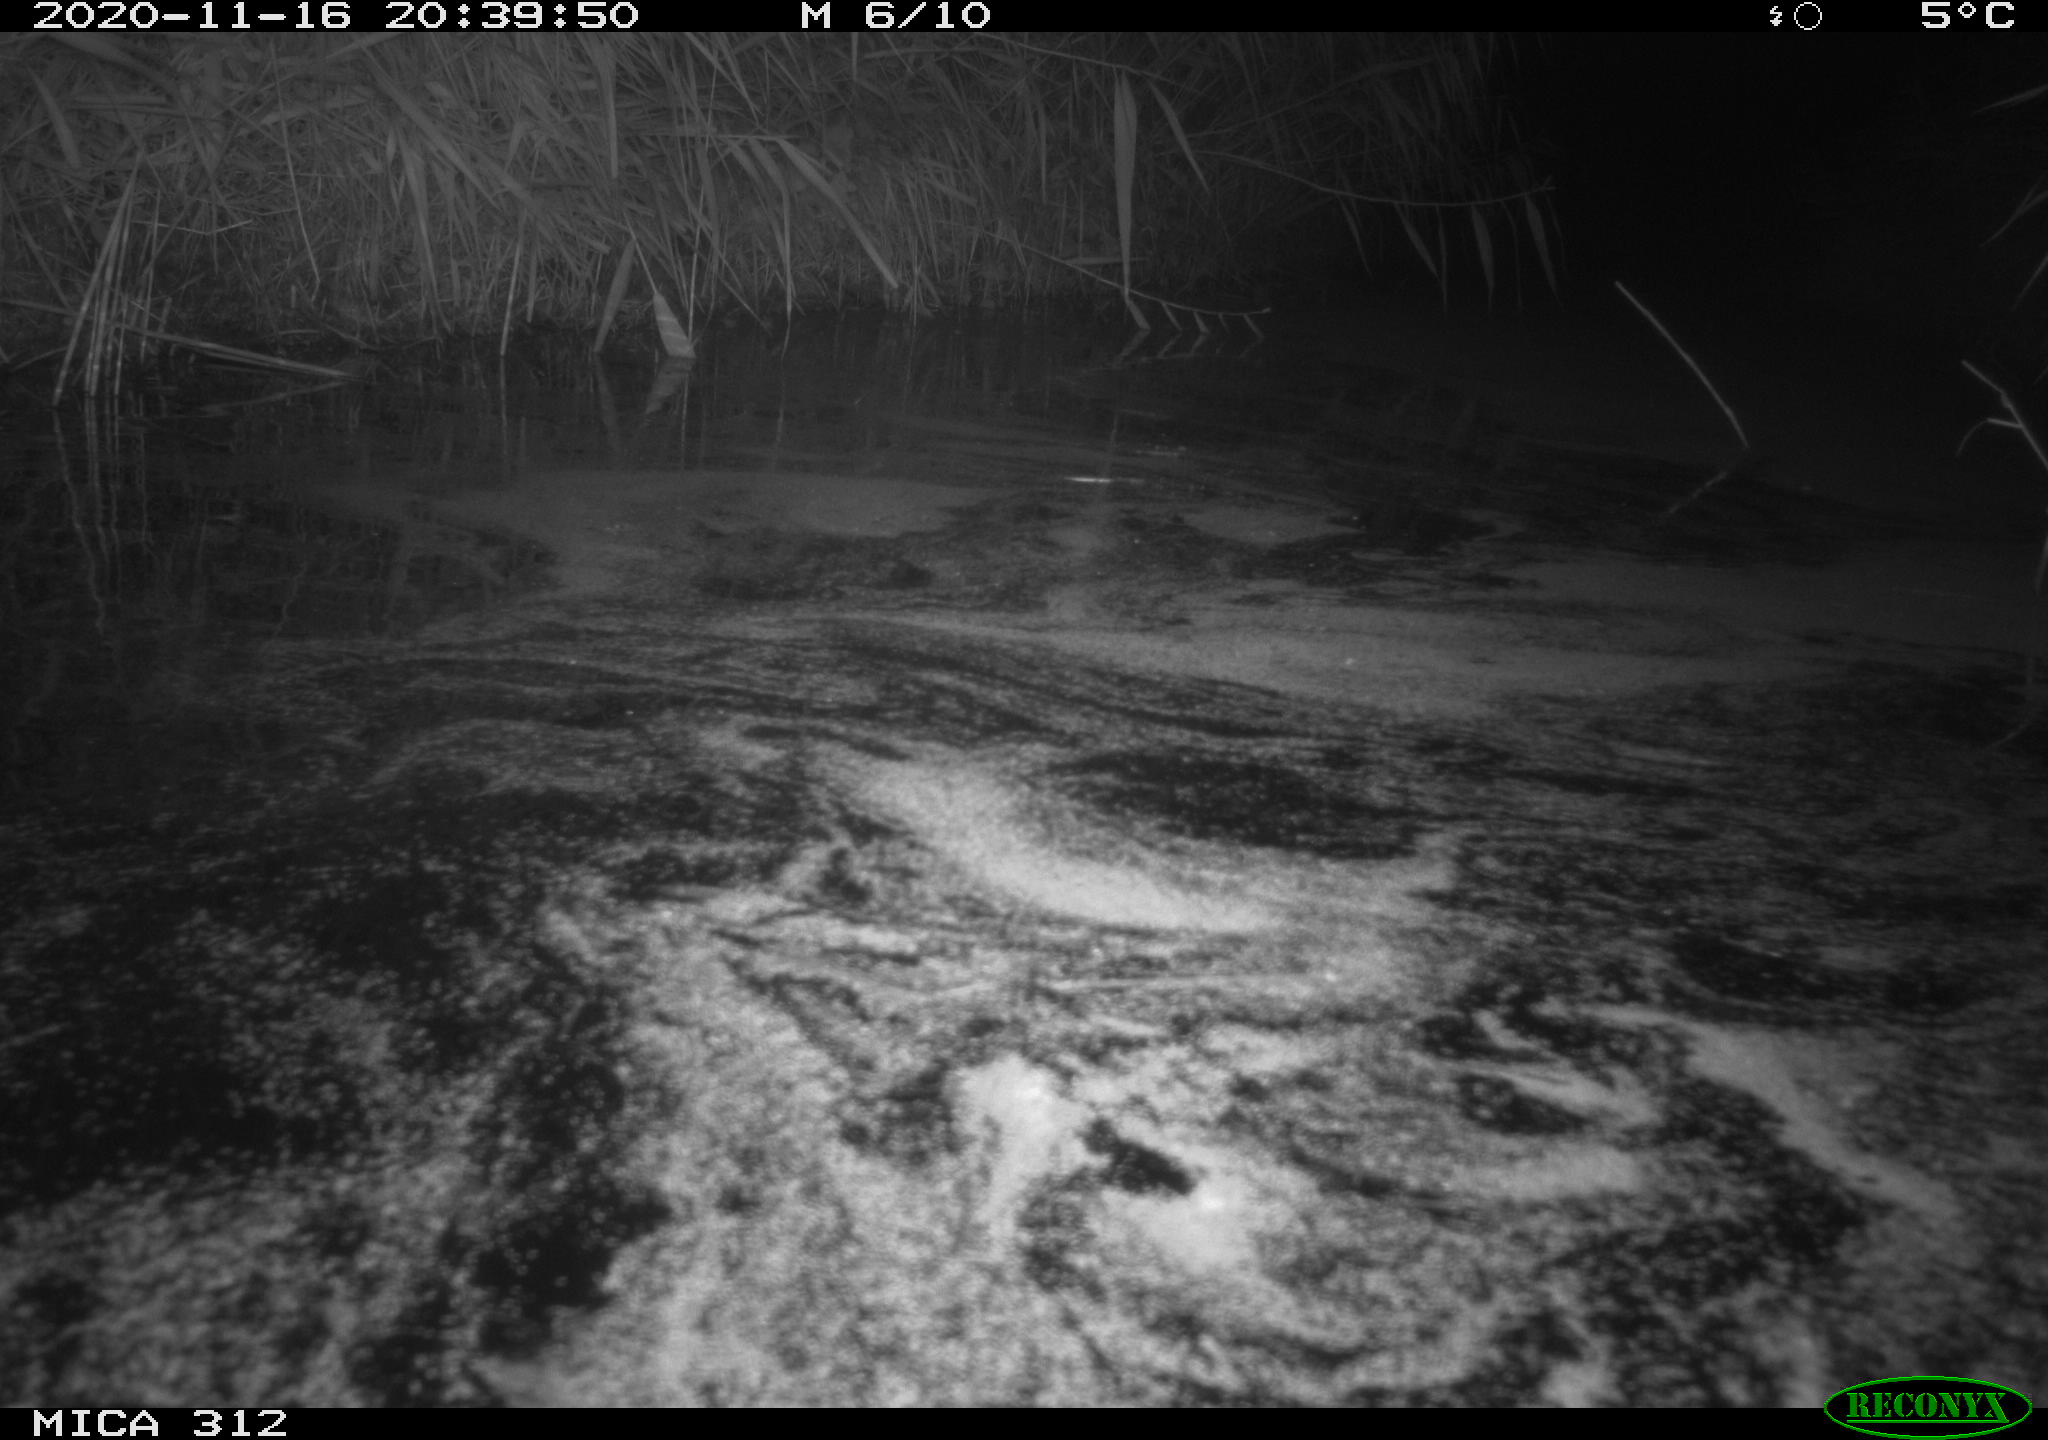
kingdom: Animalia
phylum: Chordata
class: Mammalia
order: Rodentia
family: Muridae
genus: Rattus
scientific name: Rattus norvegicus
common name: Brown rat
